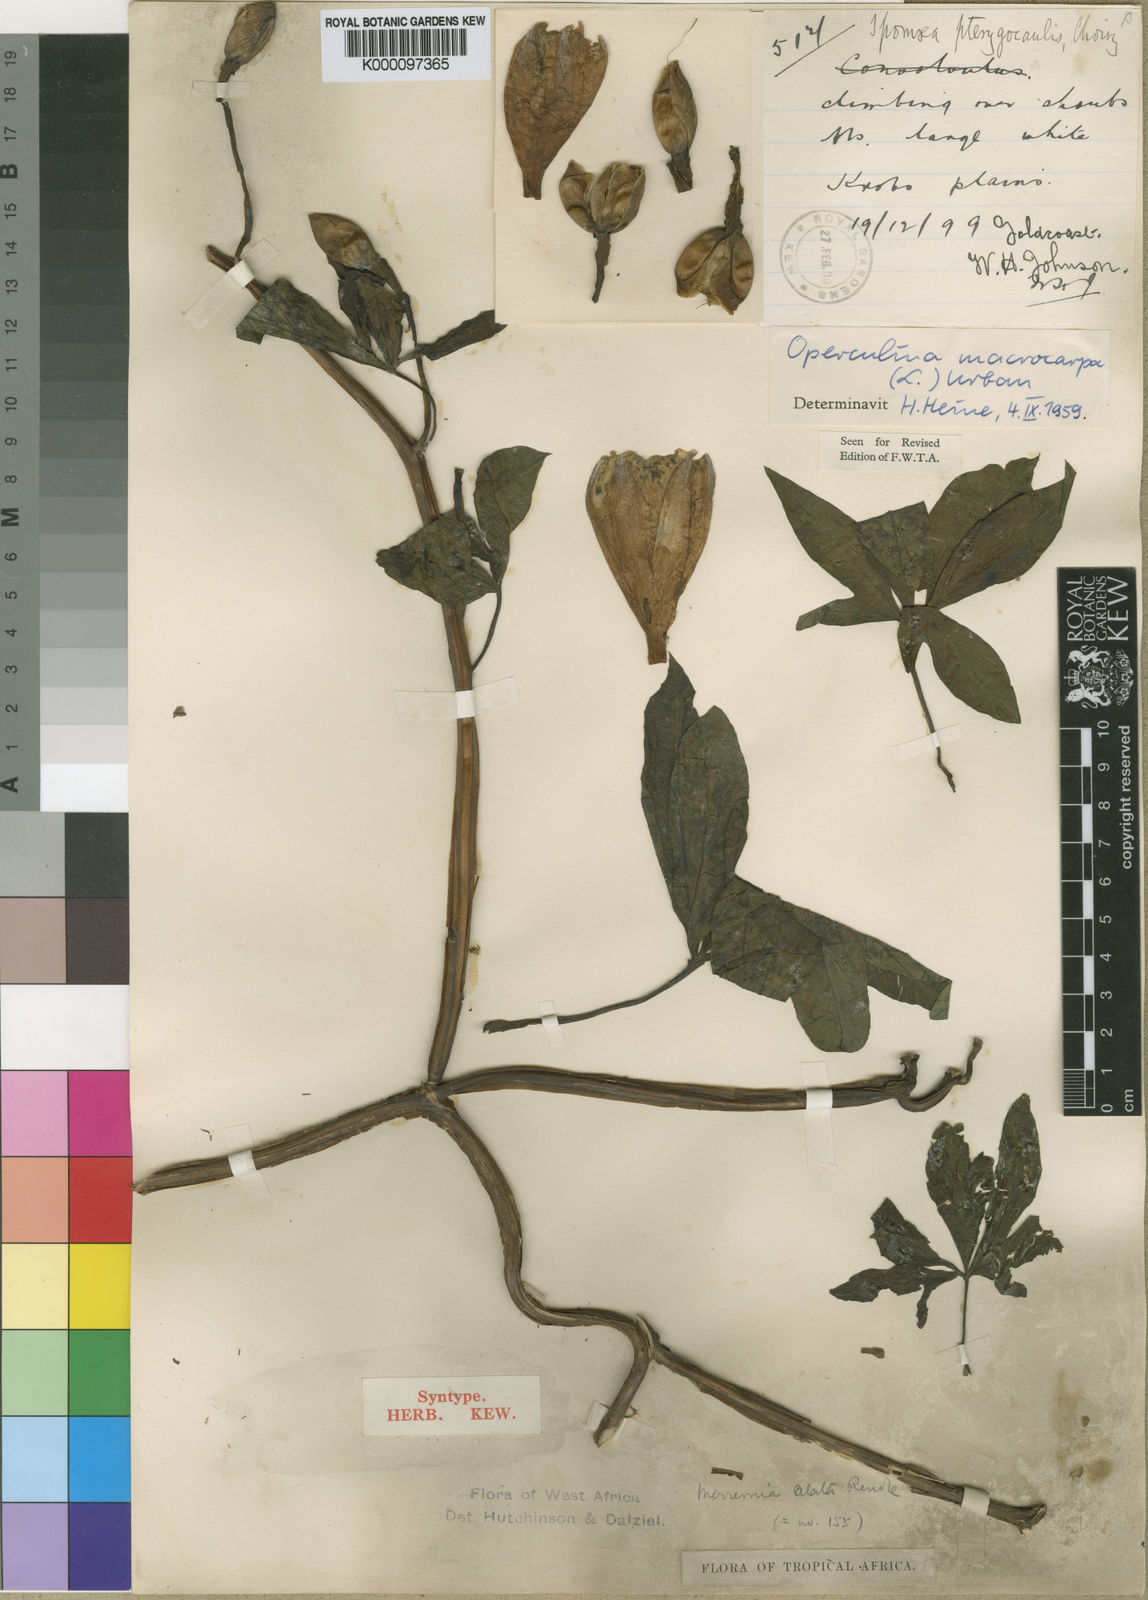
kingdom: Plantae
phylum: Tracheophyta
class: Magnoliopsida
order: Solanales
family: Convolvulaceae
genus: Operculina
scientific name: Operculina macrocarpa
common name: Brazilian jalap
